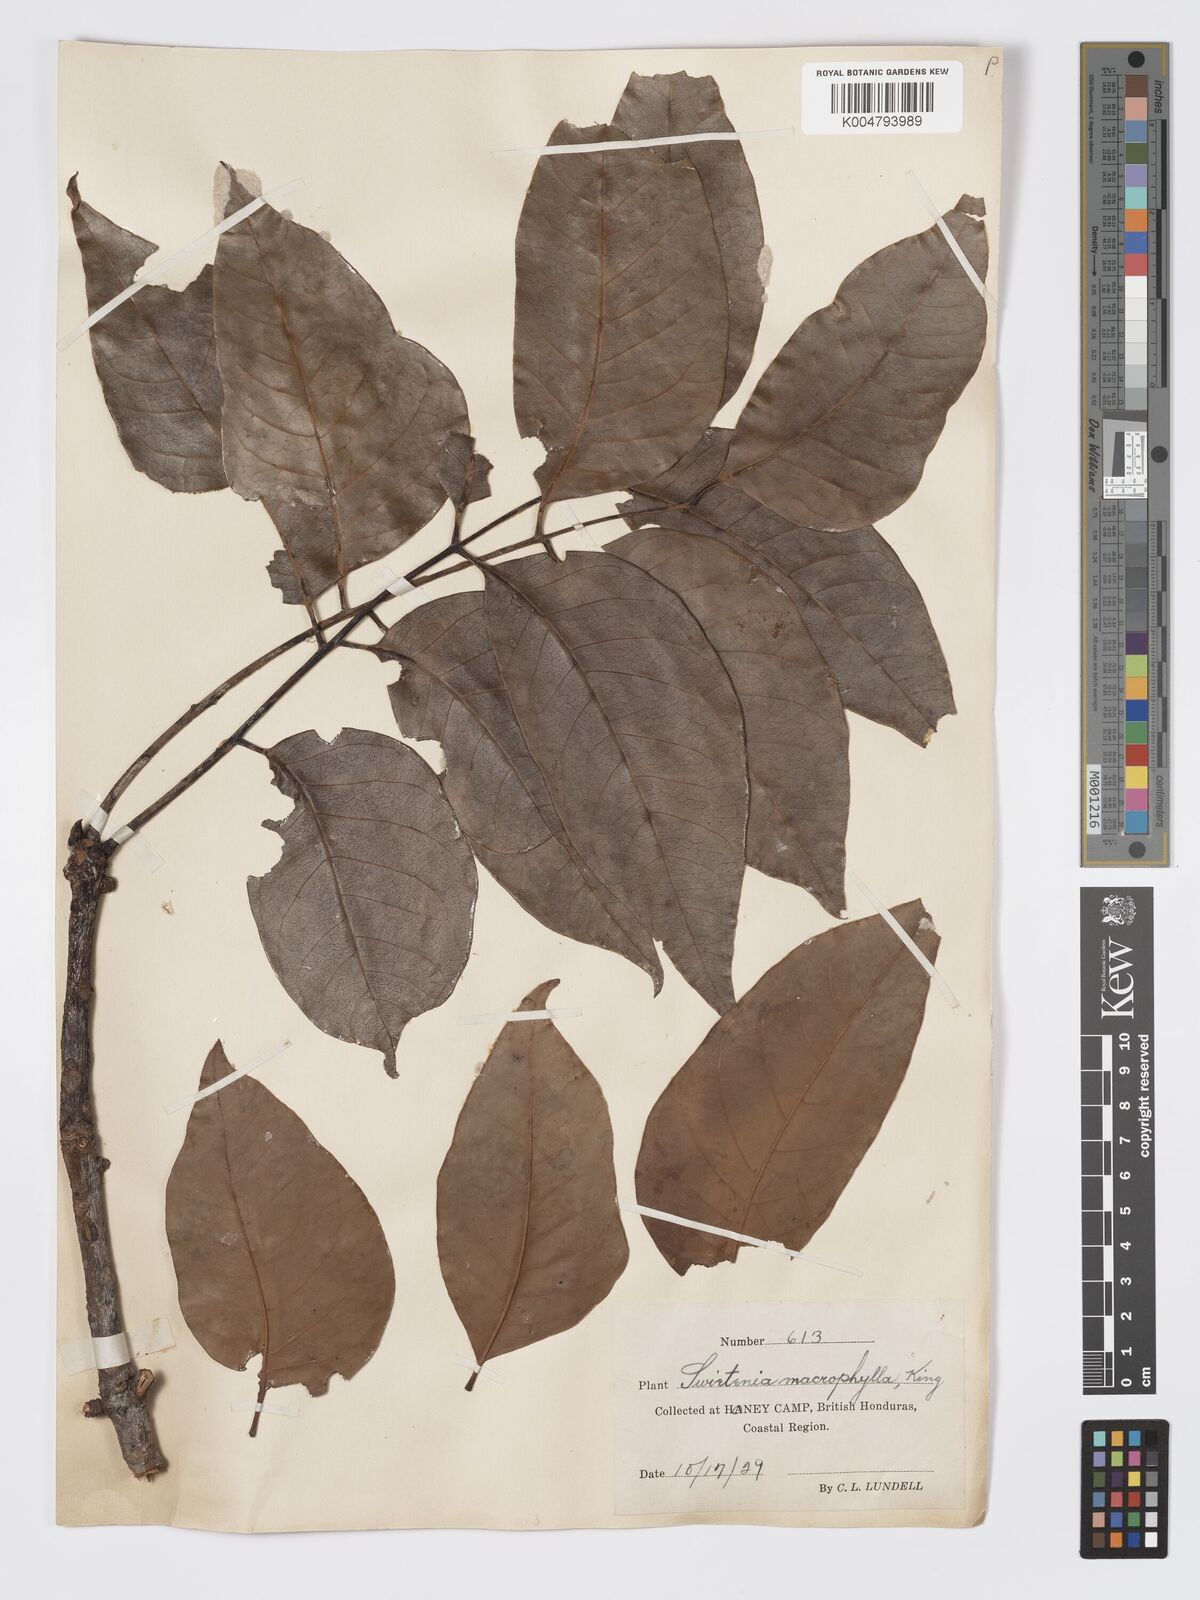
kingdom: Plantae
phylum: Tracheophyta
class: Magnoliopsida
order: Sapindales
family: Meliaceae
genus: Swietenia
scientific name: Swietenia macrophylla
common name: Honduras mahogany
